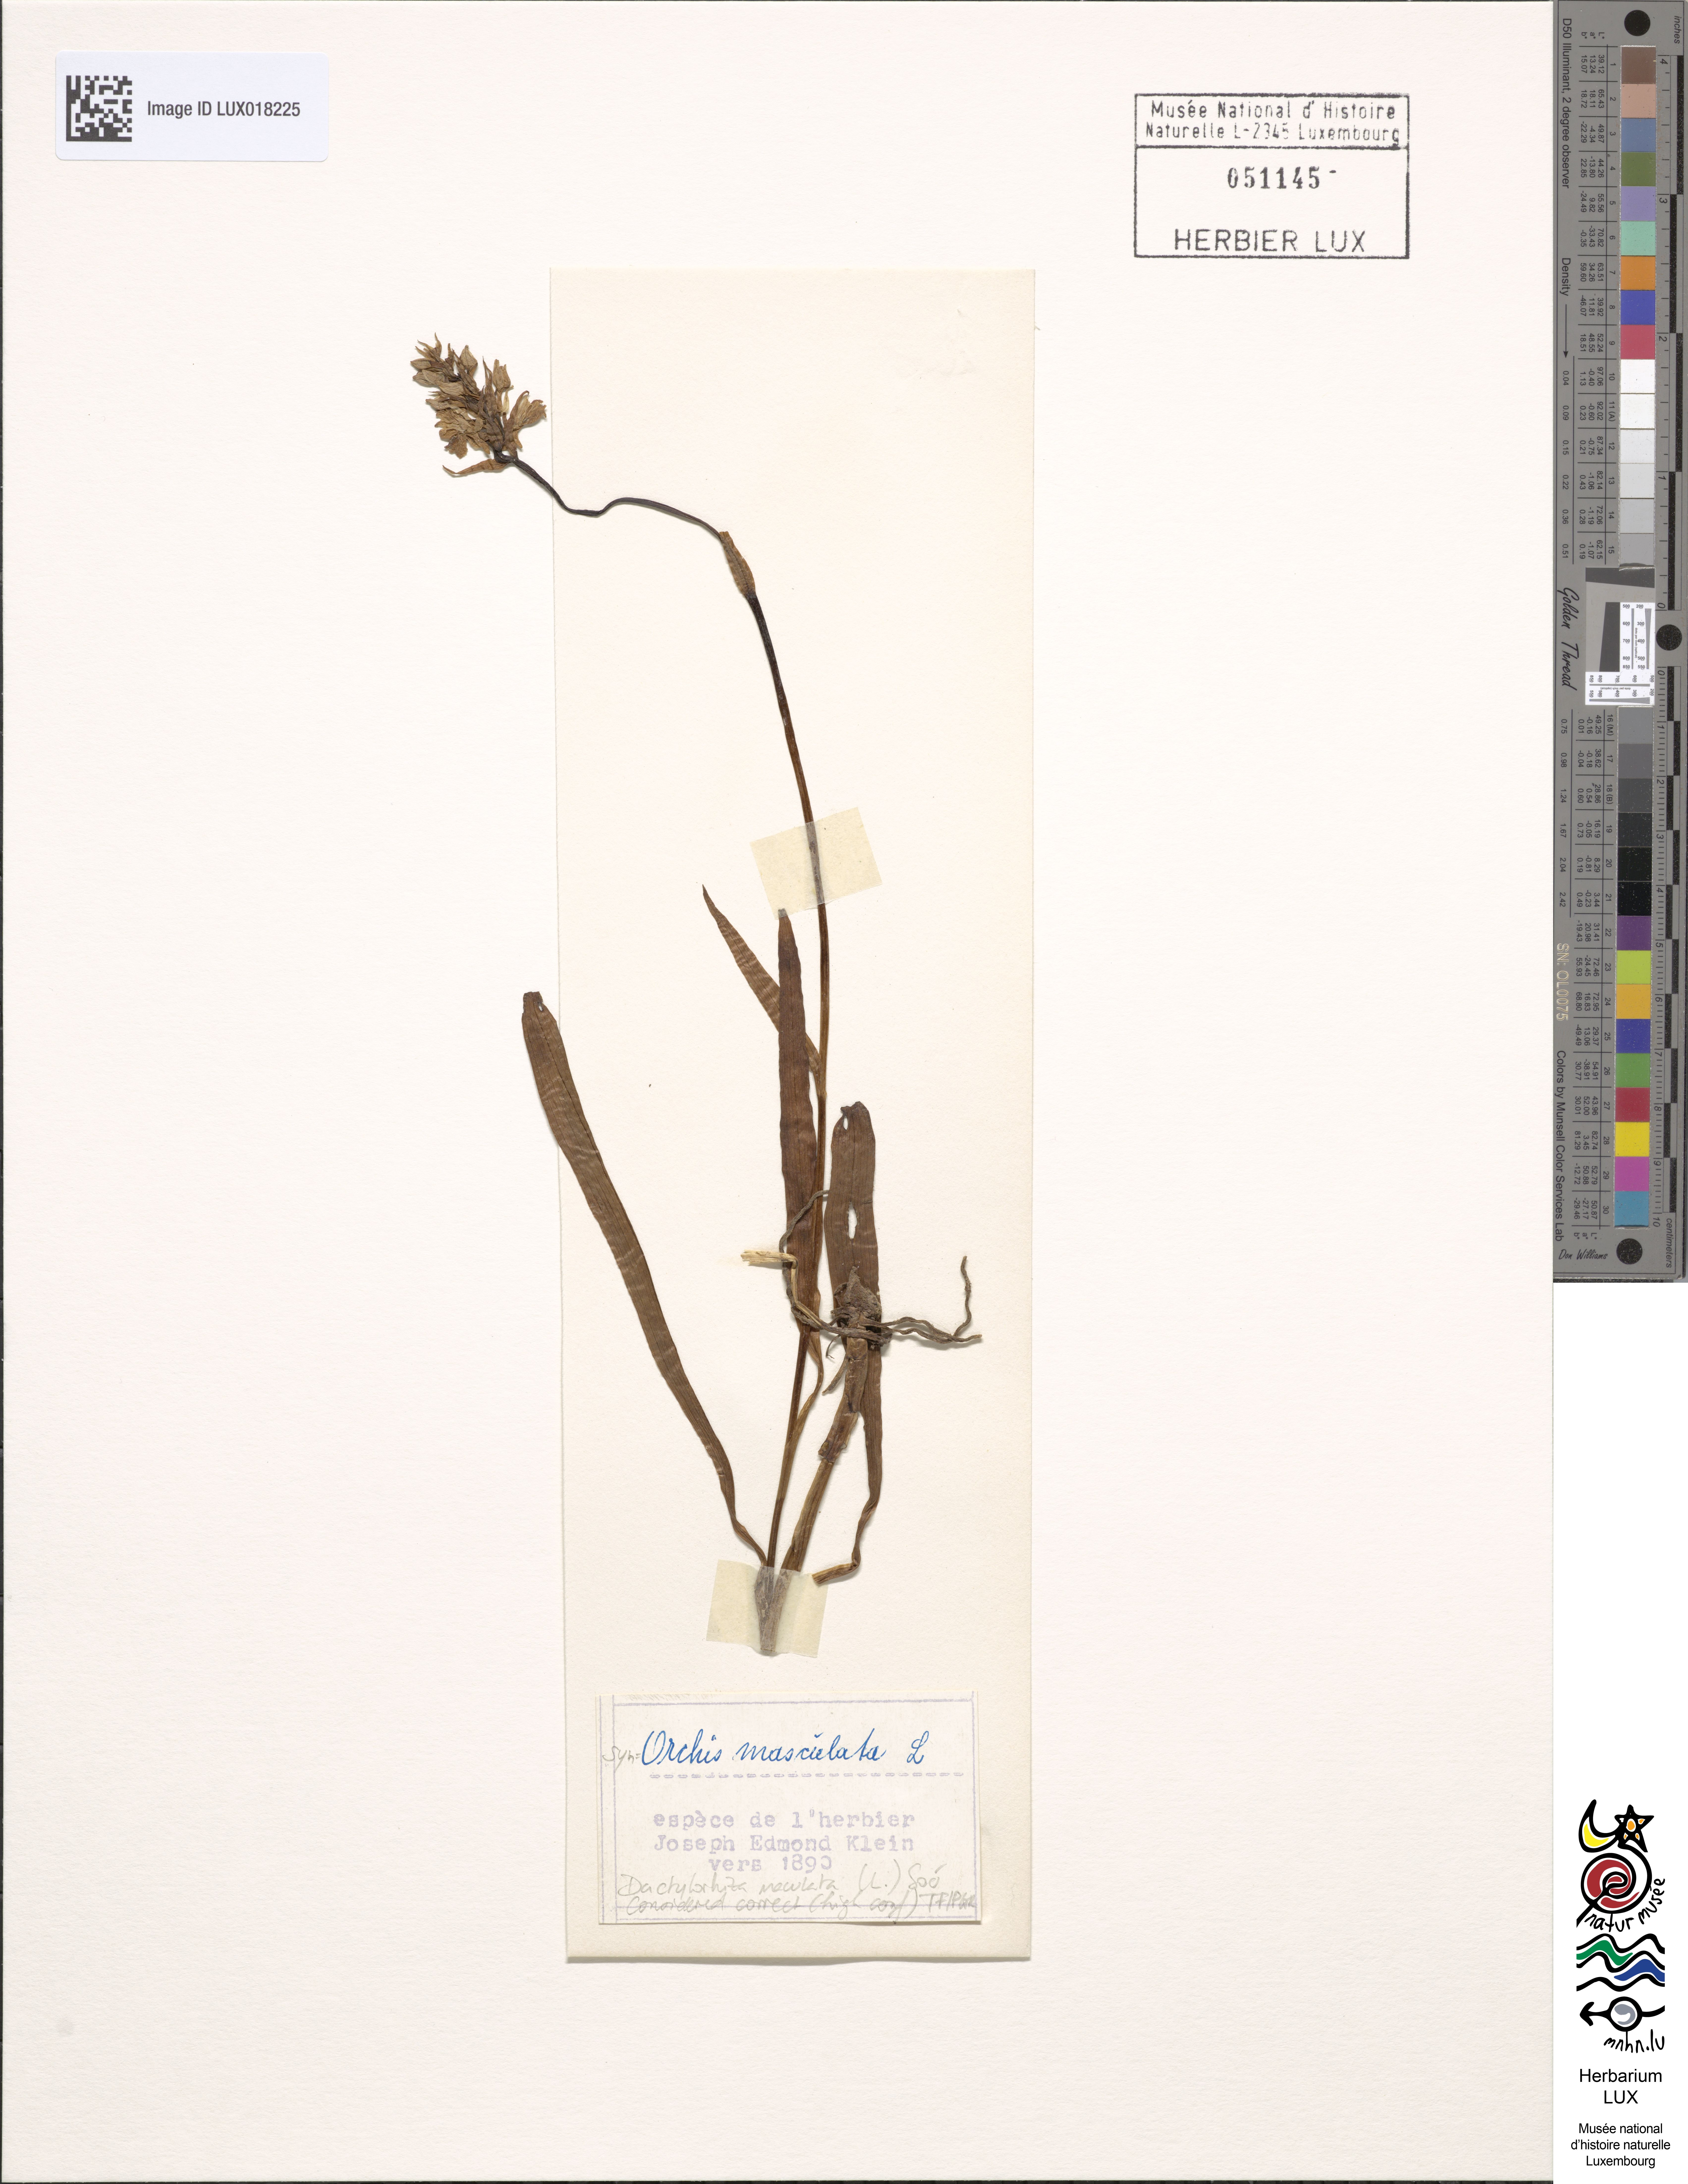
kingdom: Plantae
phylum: Tracheophyta
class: Liliopsida
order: Asparagales
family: Orchidaceae
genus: Dactylorhiza
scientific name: Dactylorhiza maculata
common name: Heath spotted-orchid
